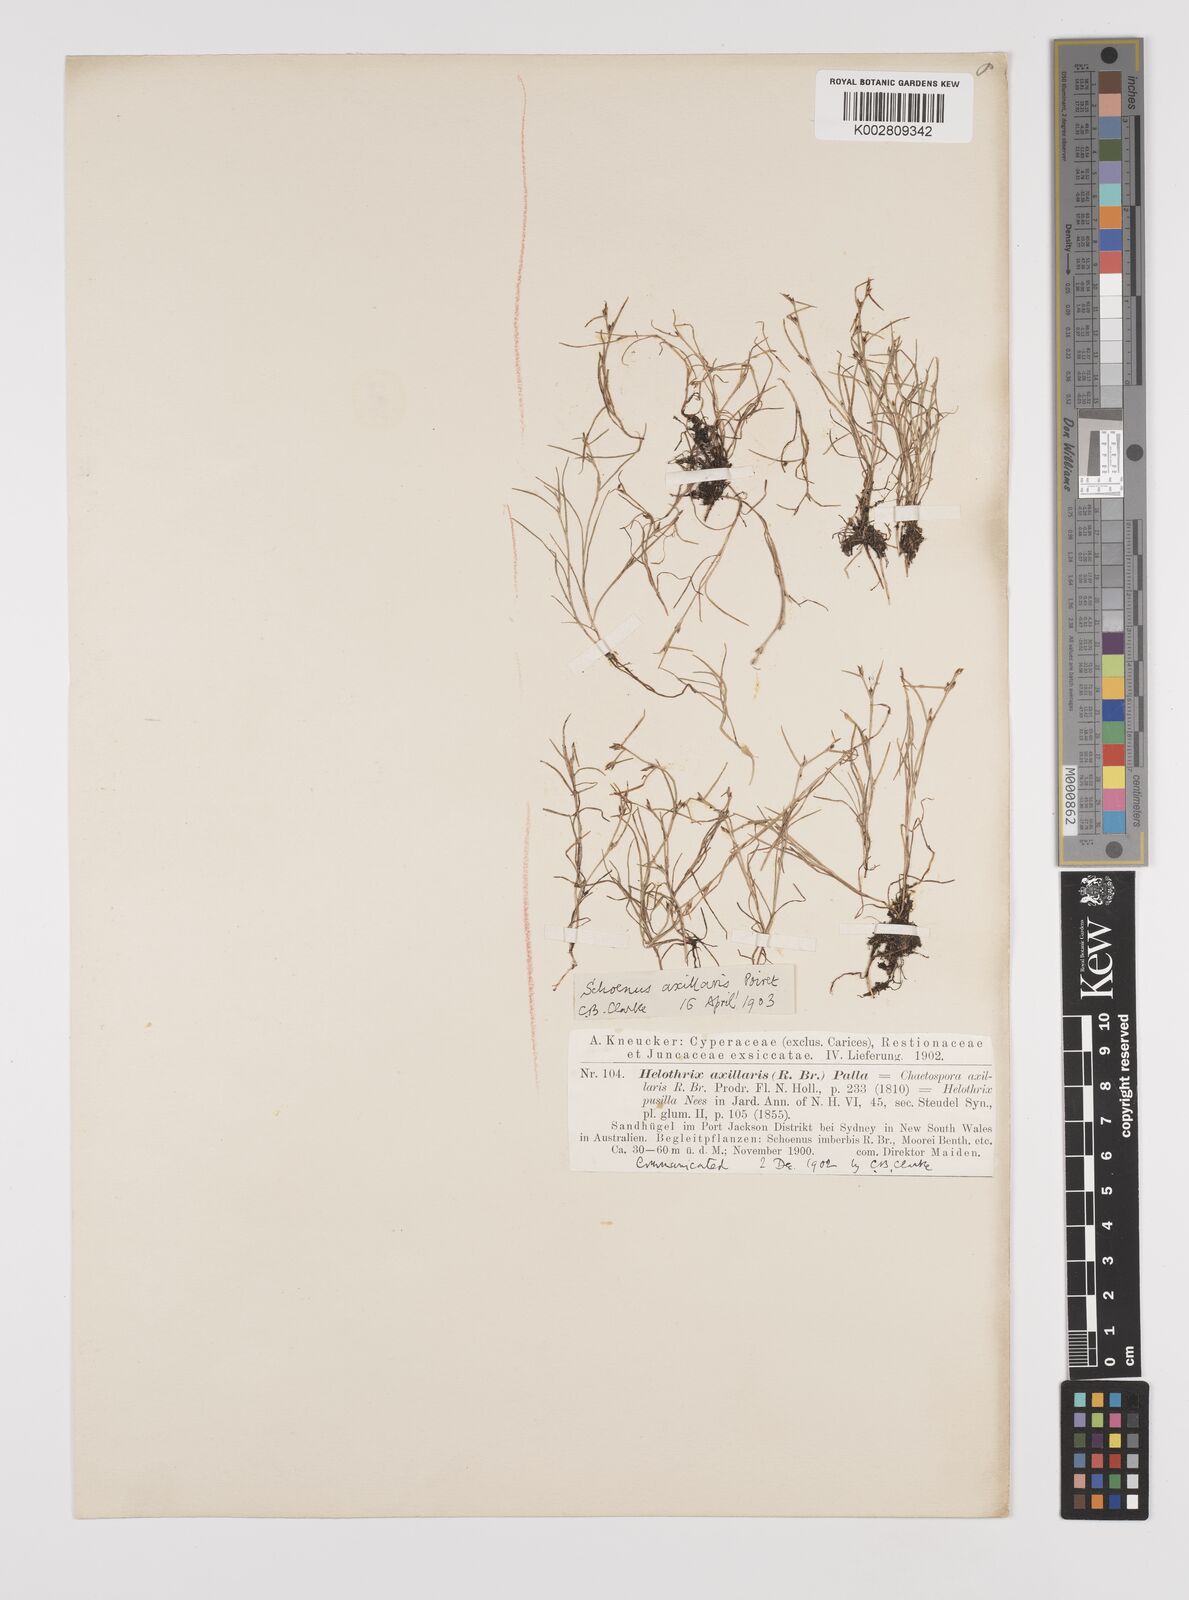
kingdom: Plantae
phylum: Tracheophyta
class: Liliopsida
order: Poales
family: Cyperaceae
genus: Schoenus
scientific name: Schoenus maschalinus
